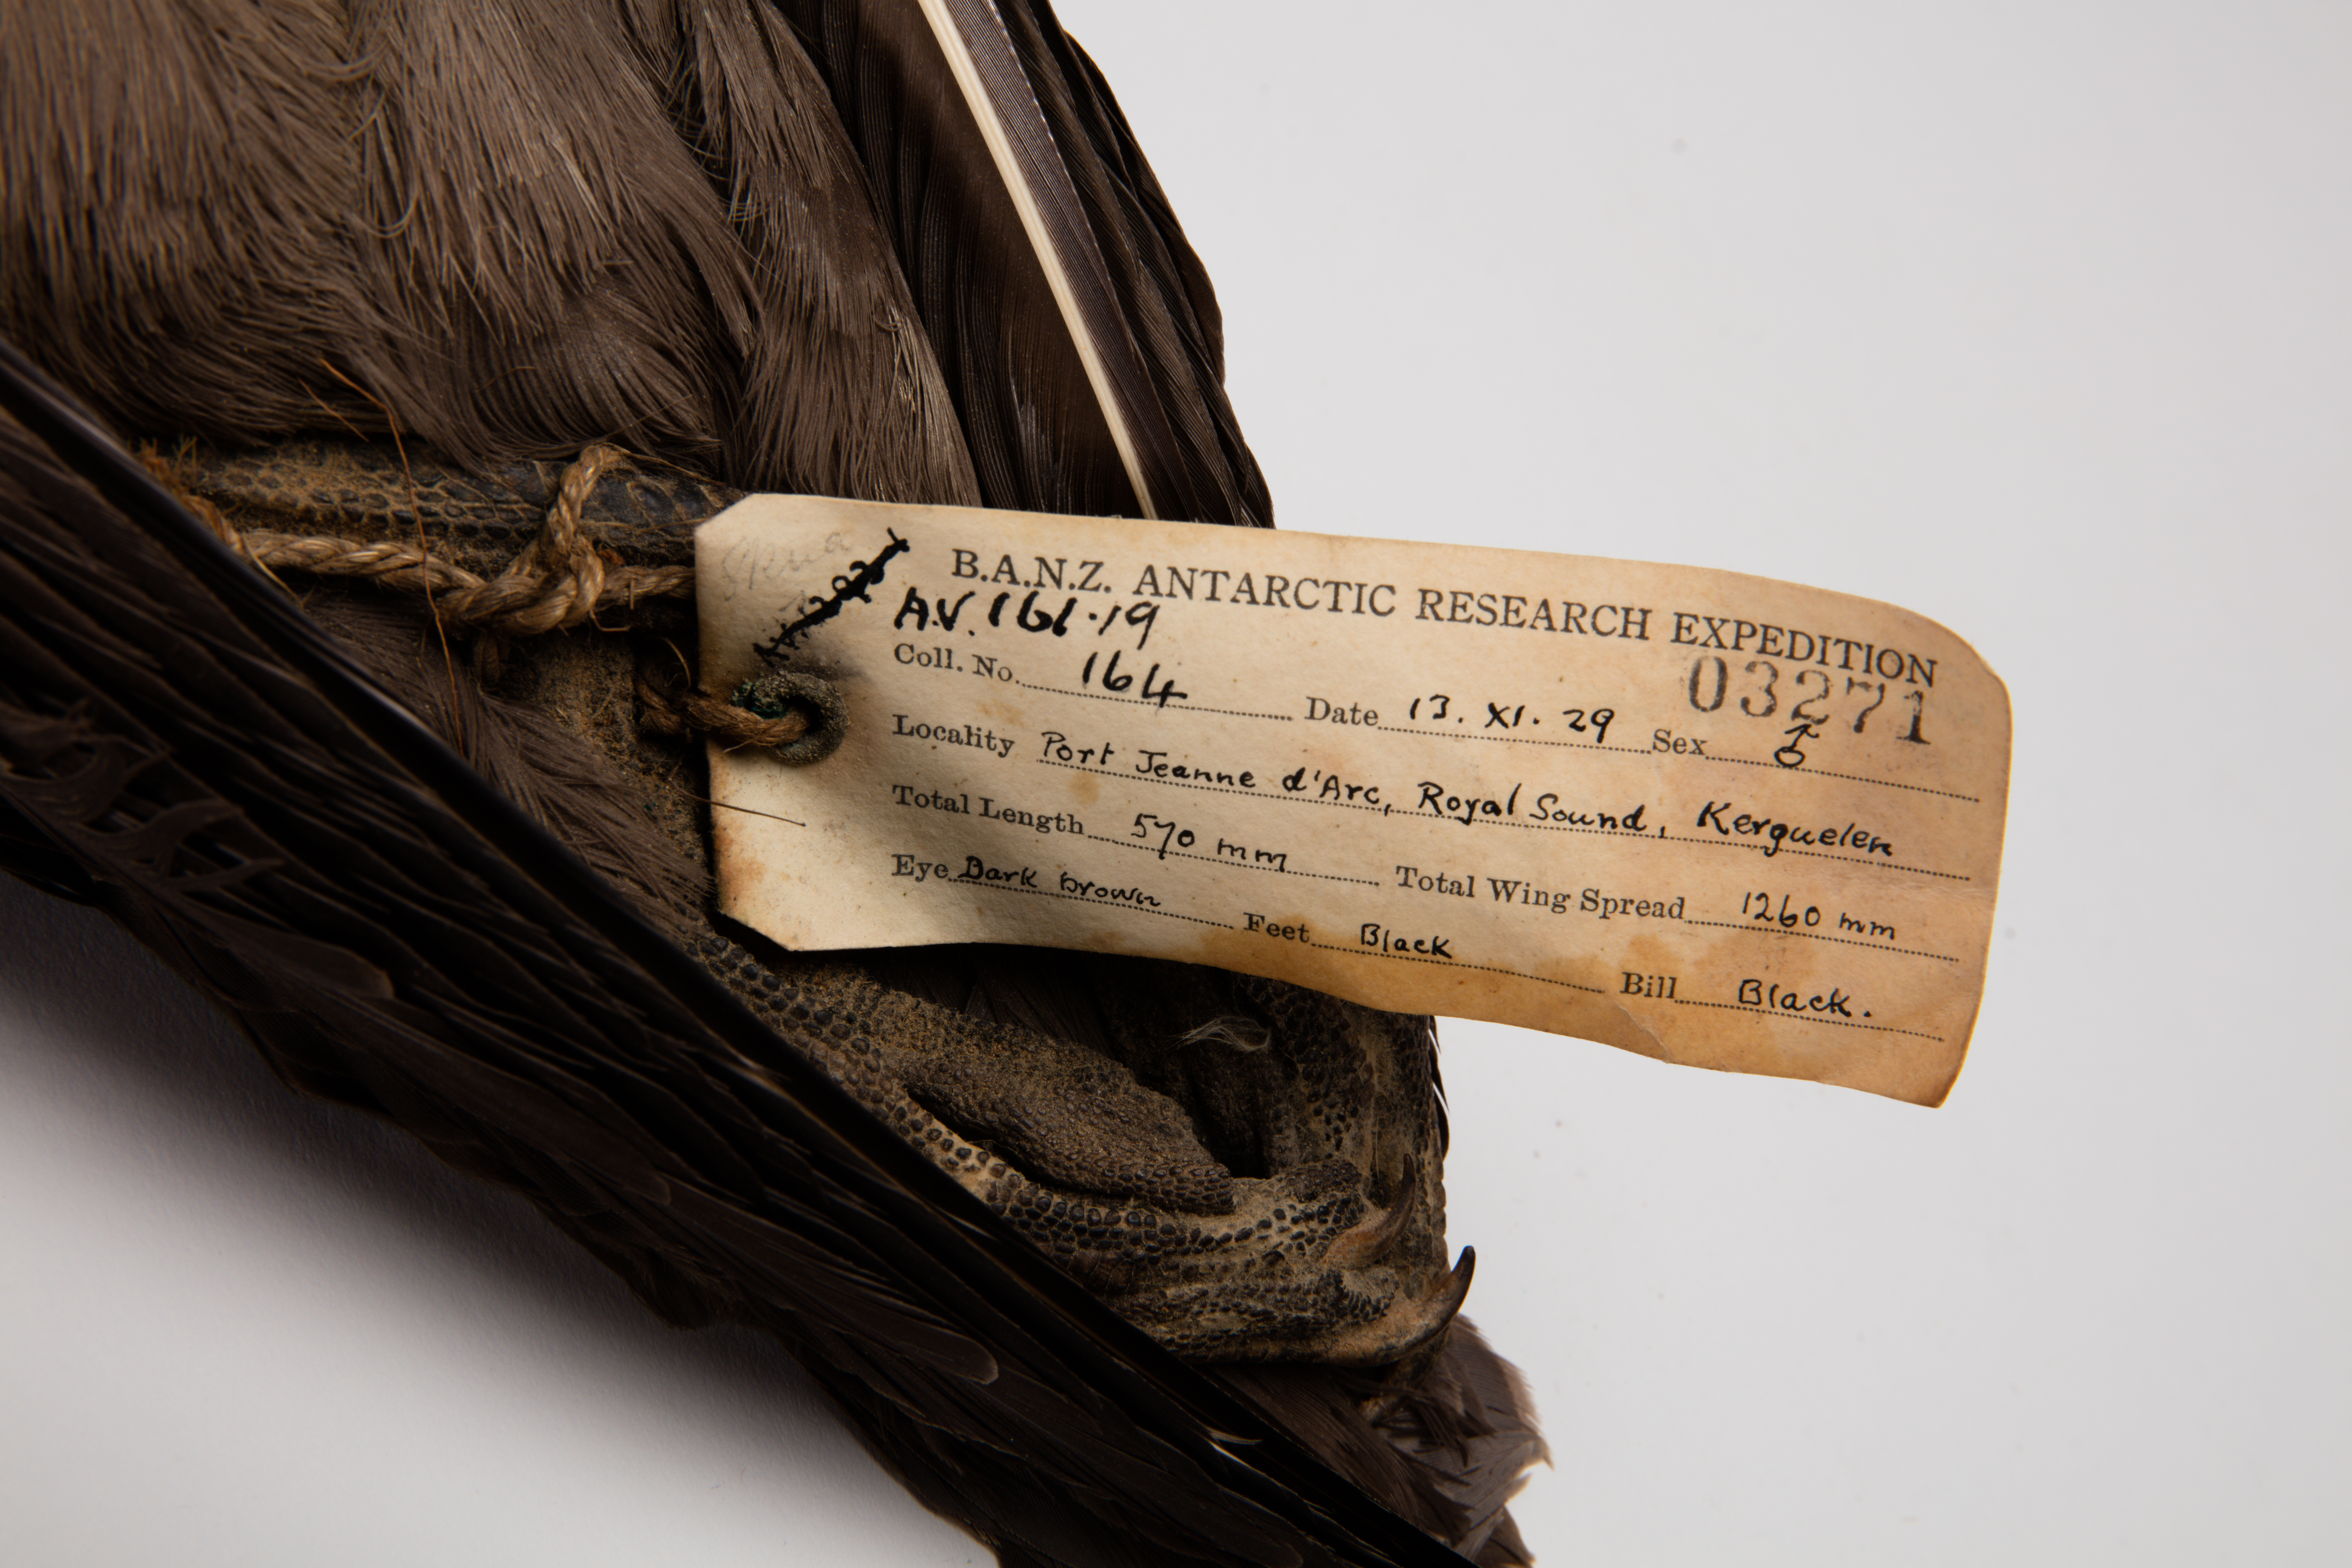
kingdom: Animalia
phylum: Chordata
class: Aves
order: Charadriiformes
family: Stercorariidae
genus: Stercorarius
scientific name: Stercorarius antarcticus
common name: Brown skua
